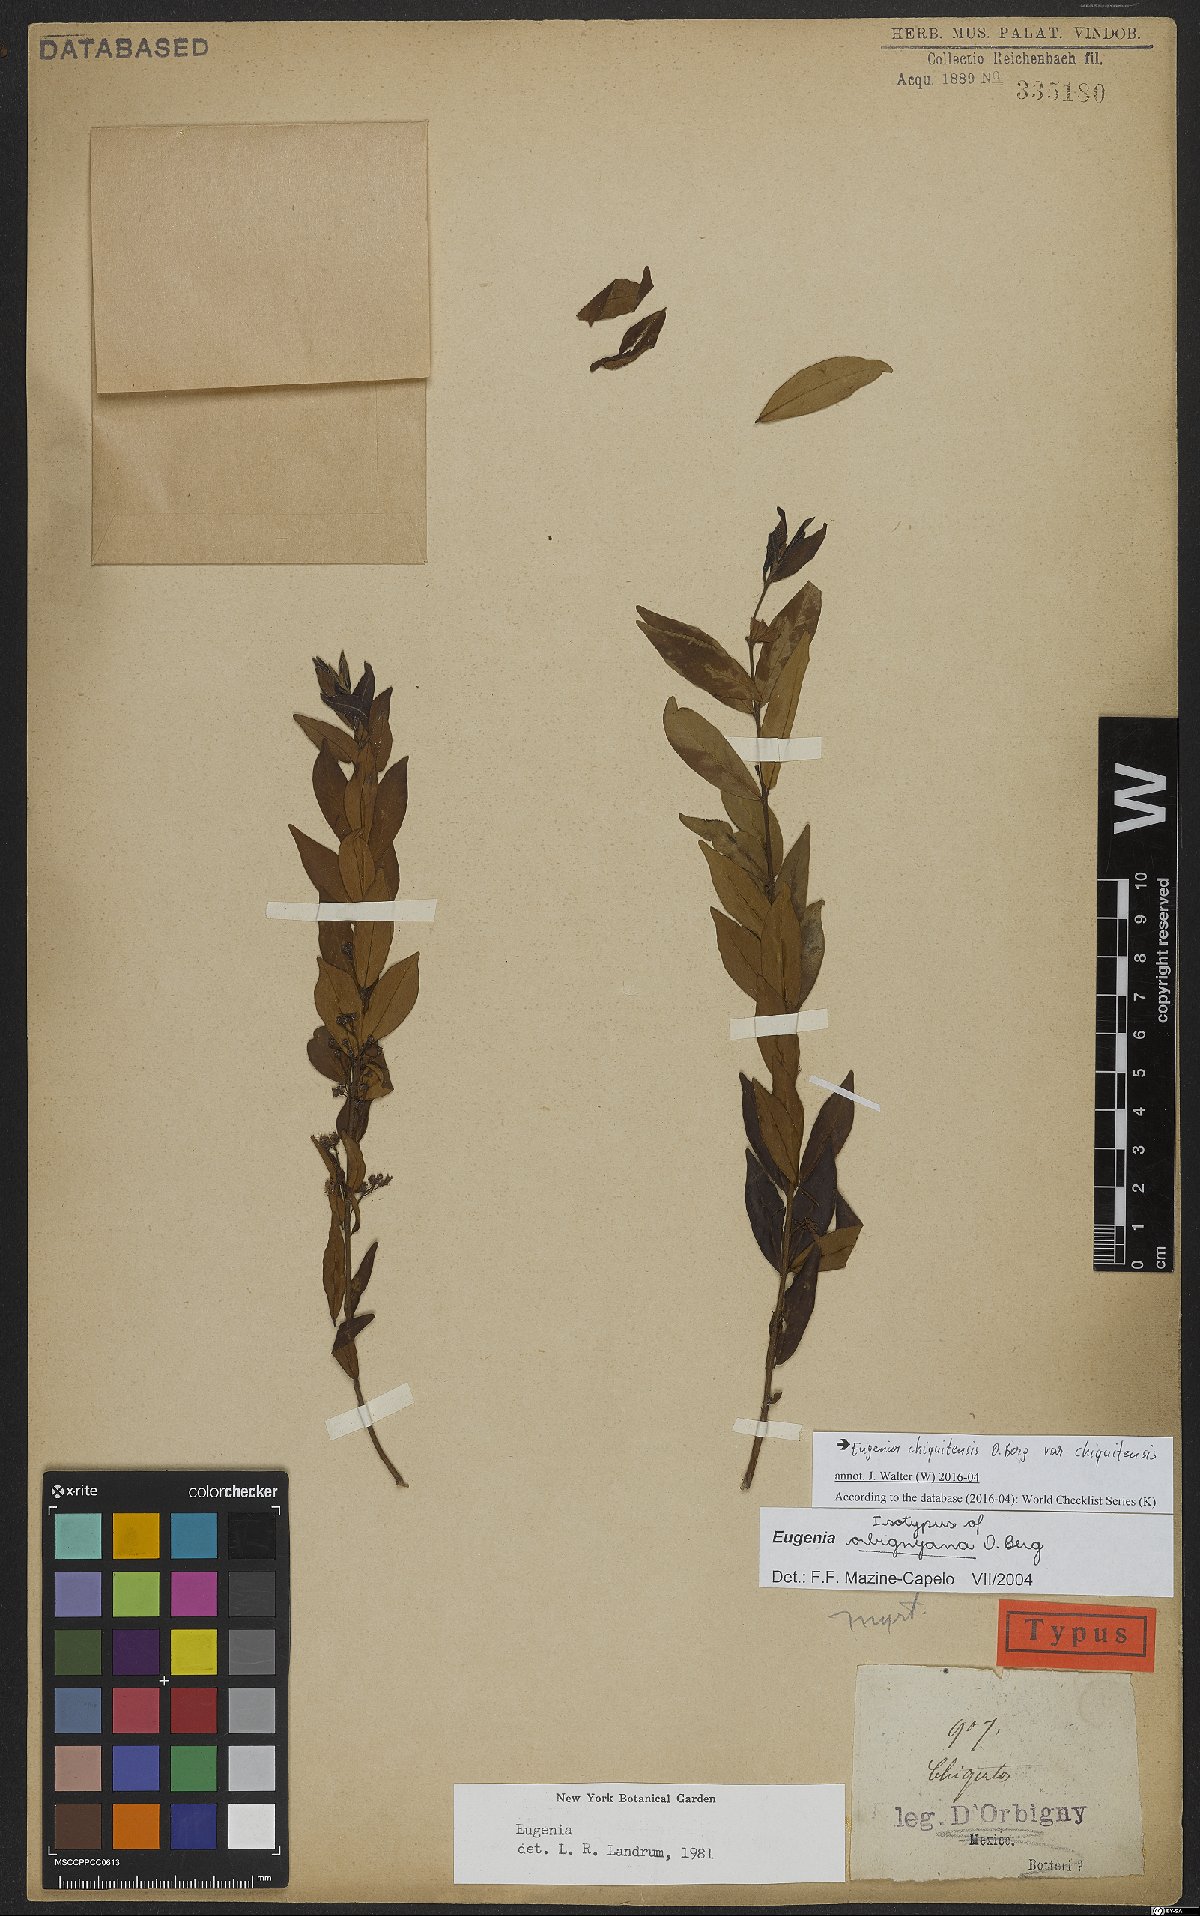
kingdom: Plantae
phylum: Tracheophyta
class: Magnoliopsida
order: Myrtales
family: Myrtaceae
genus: Eugenia
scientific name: Eugenia chiquitensis
